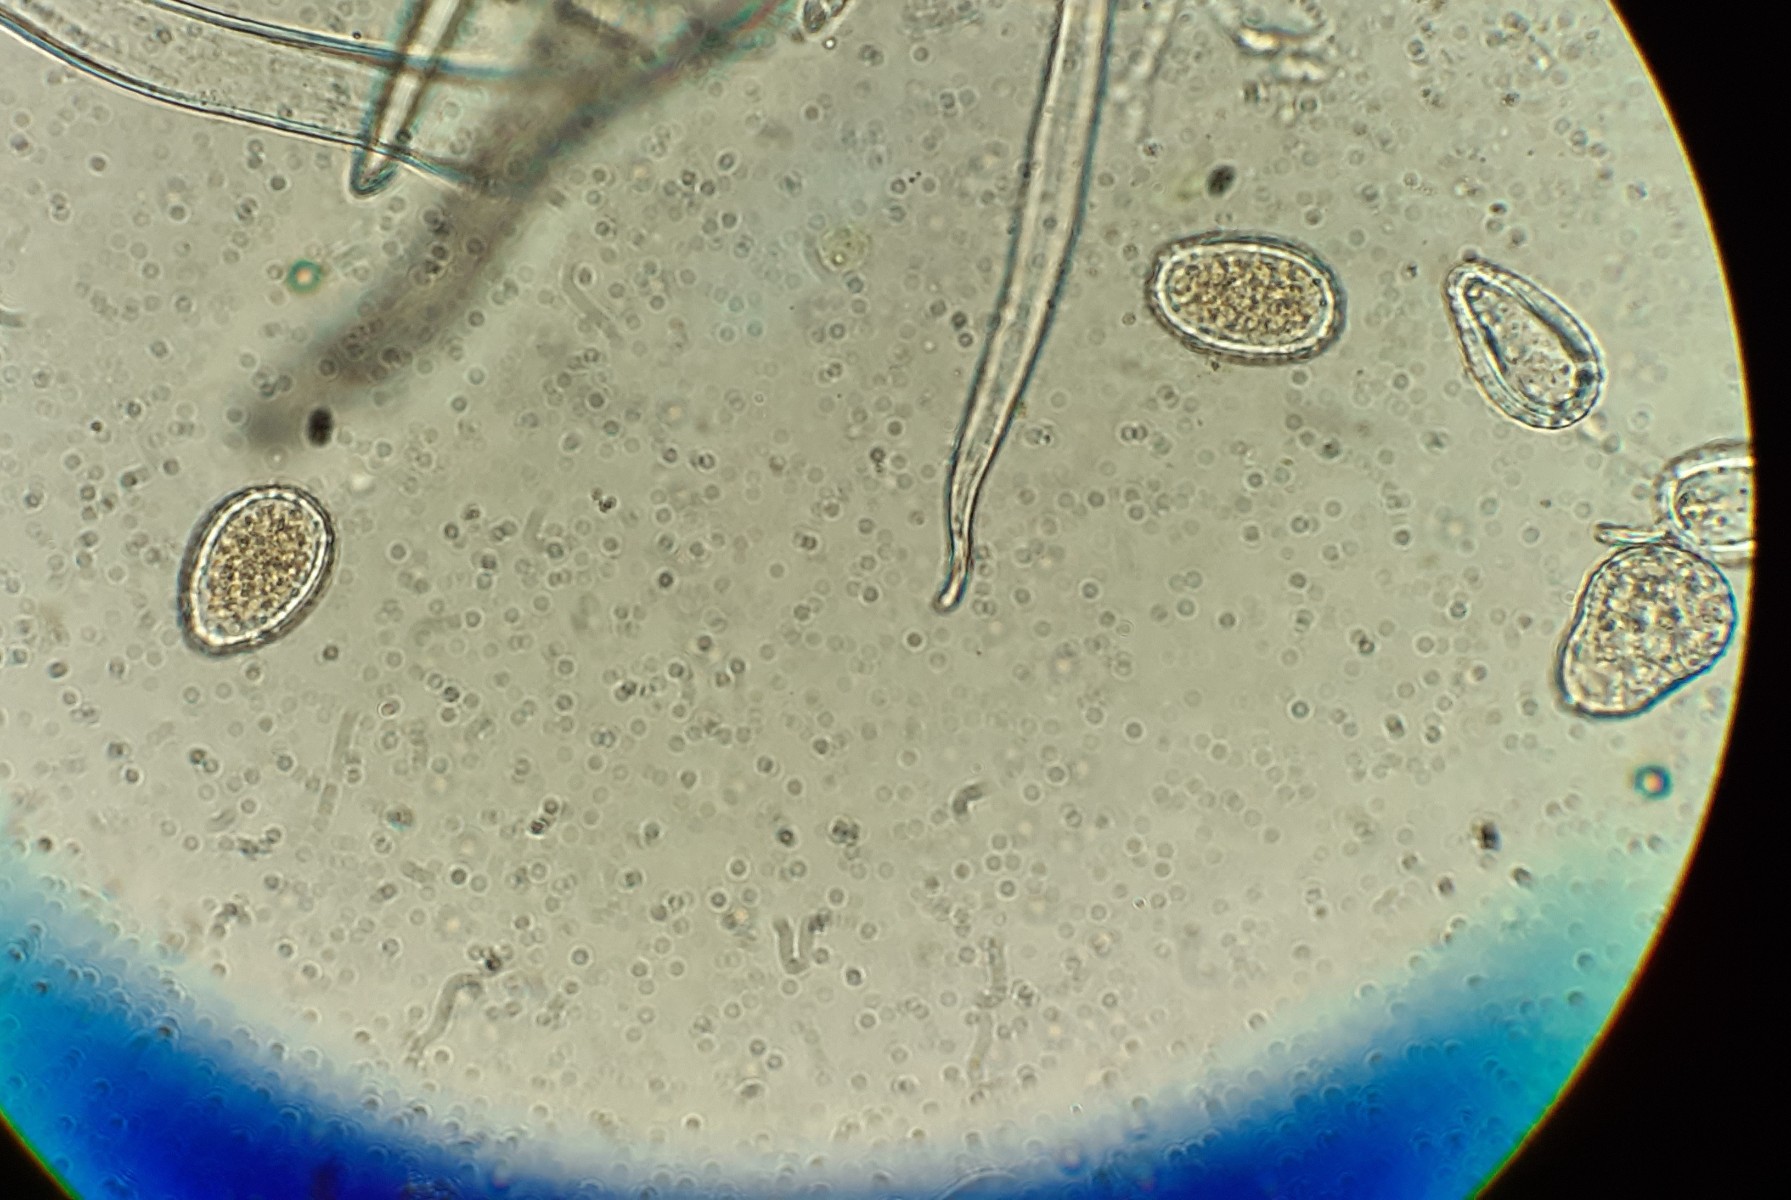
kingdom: Fungi
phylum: Basidiomycota
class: Pucciniomycetes
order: Pucciniales
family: Melampsoraceae
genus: Melampsora
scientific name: Melampsora populnea
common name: poppel-skorperust
